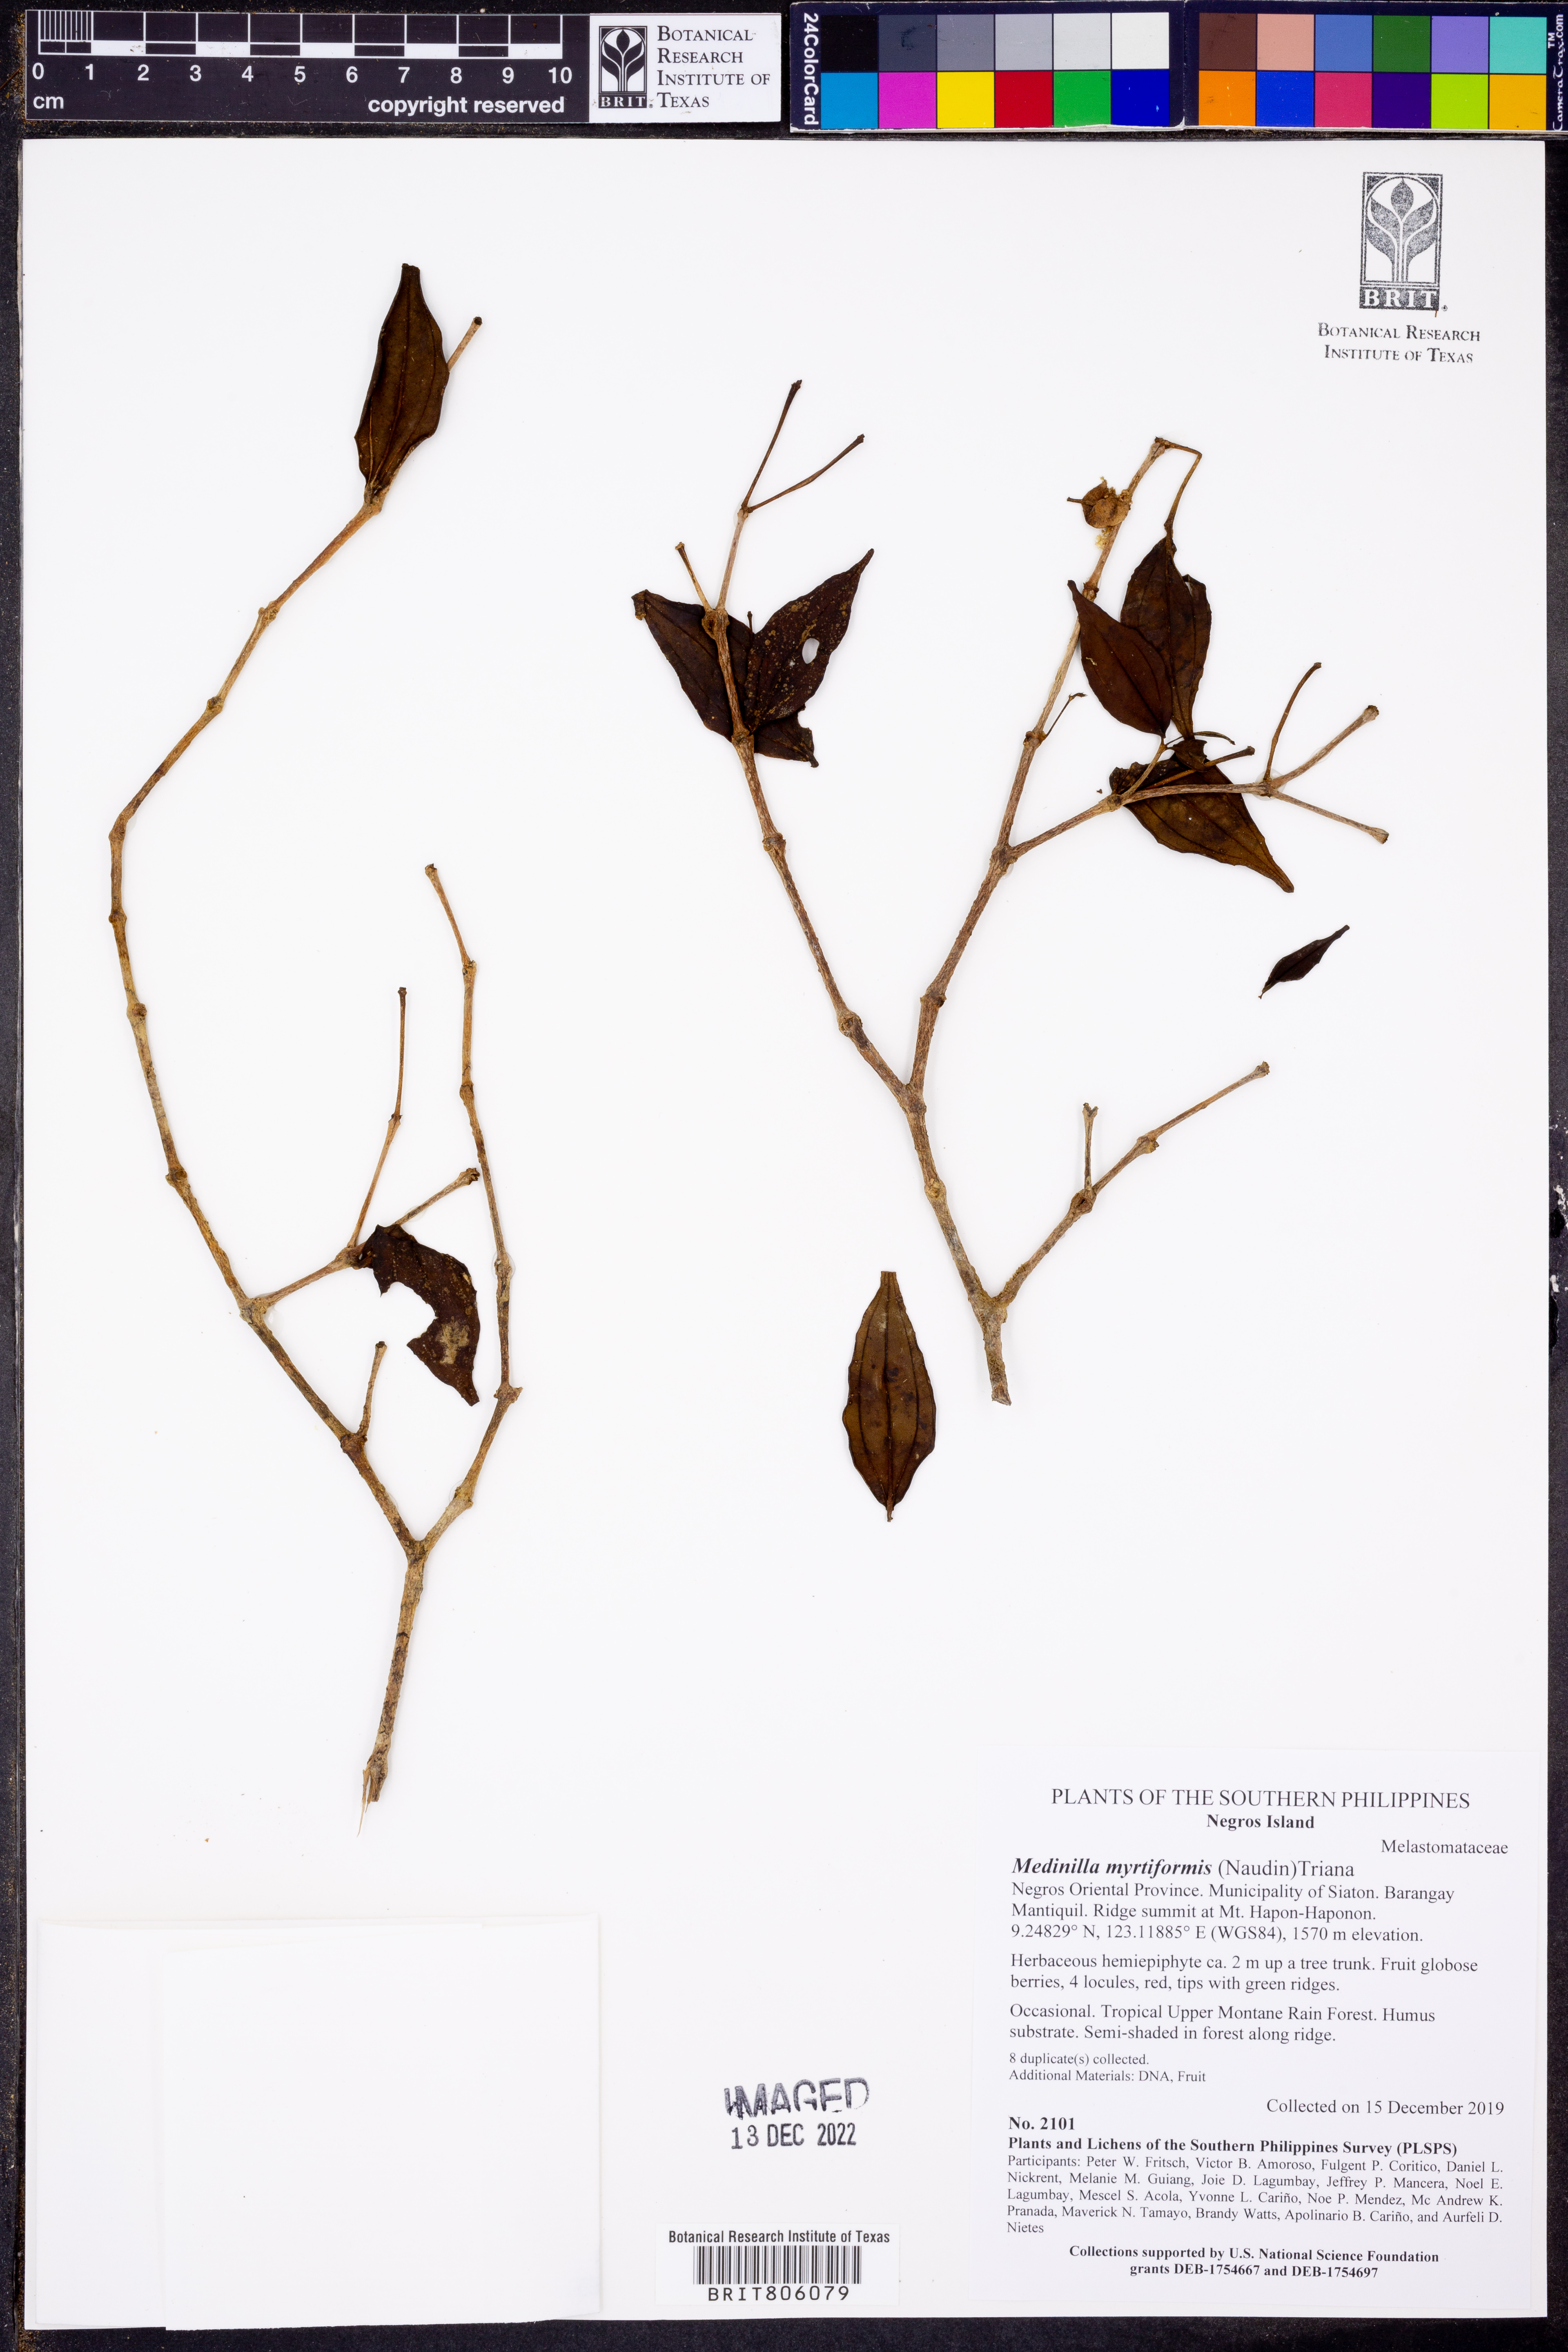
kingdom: Plantae
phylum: Tracheophyta
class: Magnoliopsida
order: Myrtales
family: Melastomataceae
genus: Medinilla
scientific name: Medinilla myrtiformis
